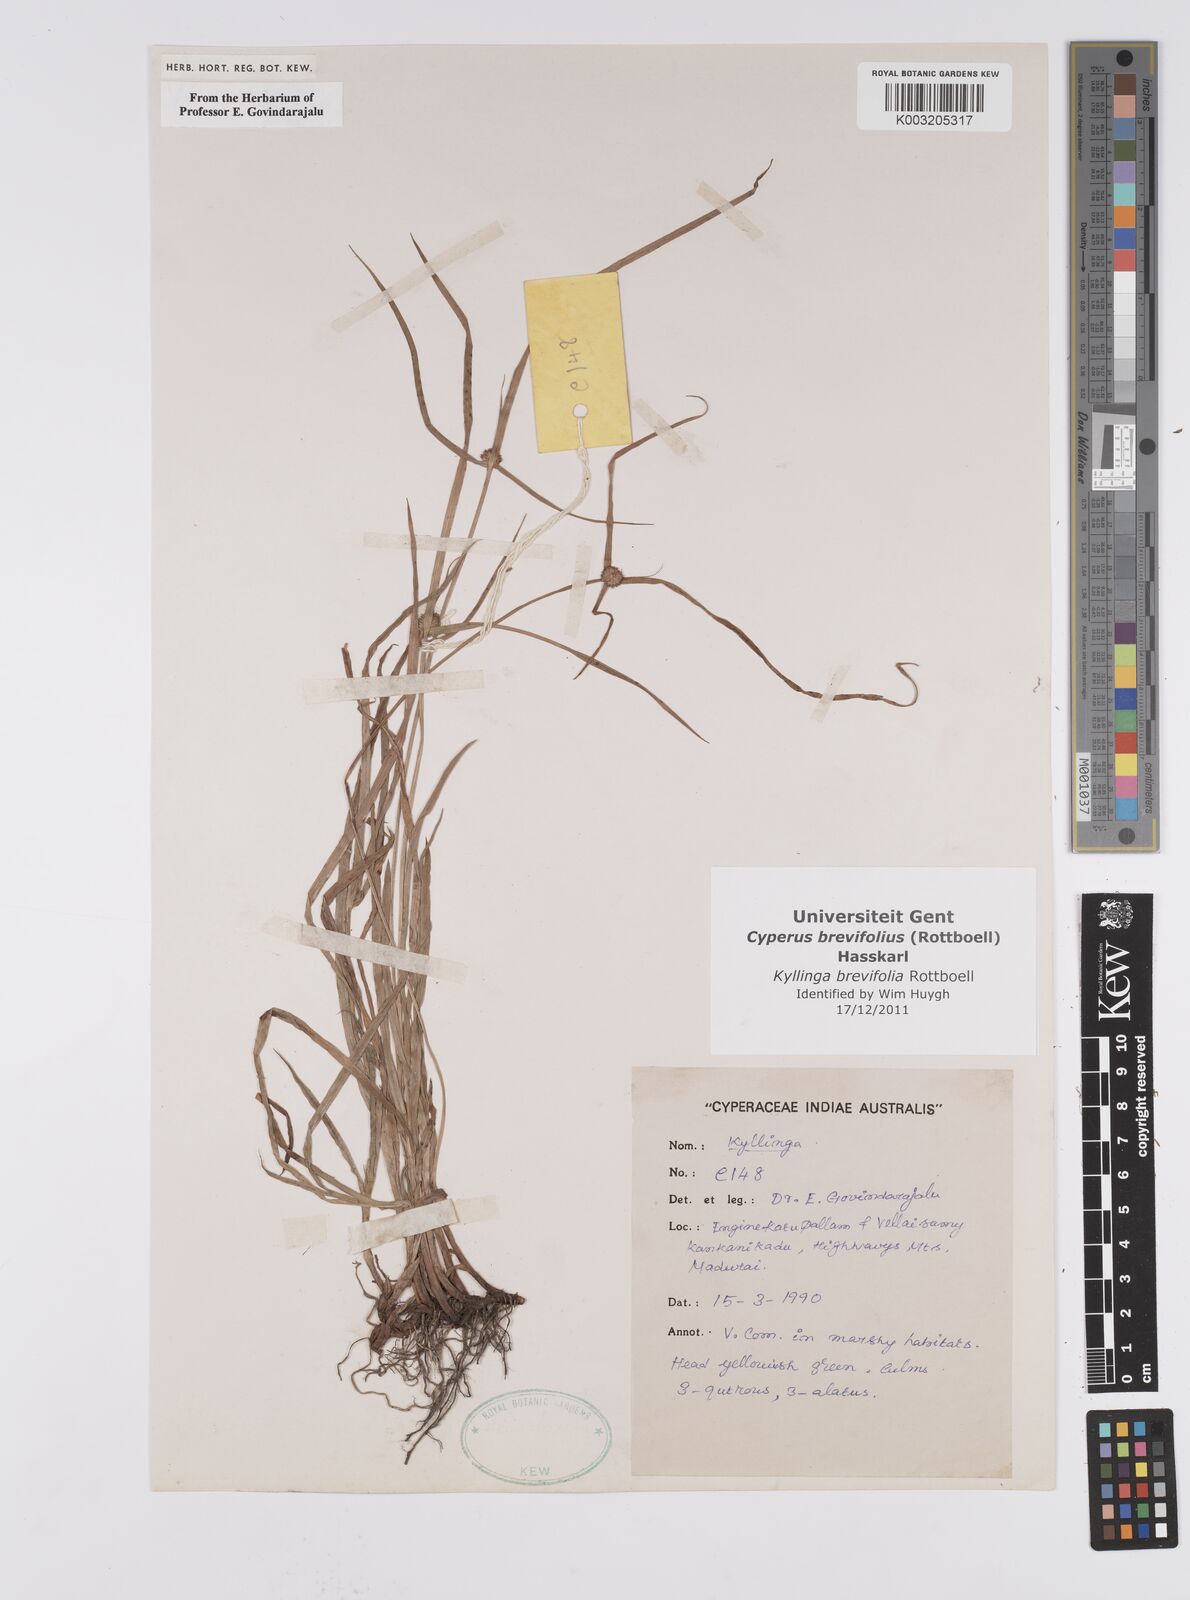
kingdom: Plantae
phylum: Tracheophyta
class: Liliopsida
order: Poales
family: Cyperaceae
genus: Cyperus
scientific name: Cyperus brevifolius
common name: Globe kyllinga
